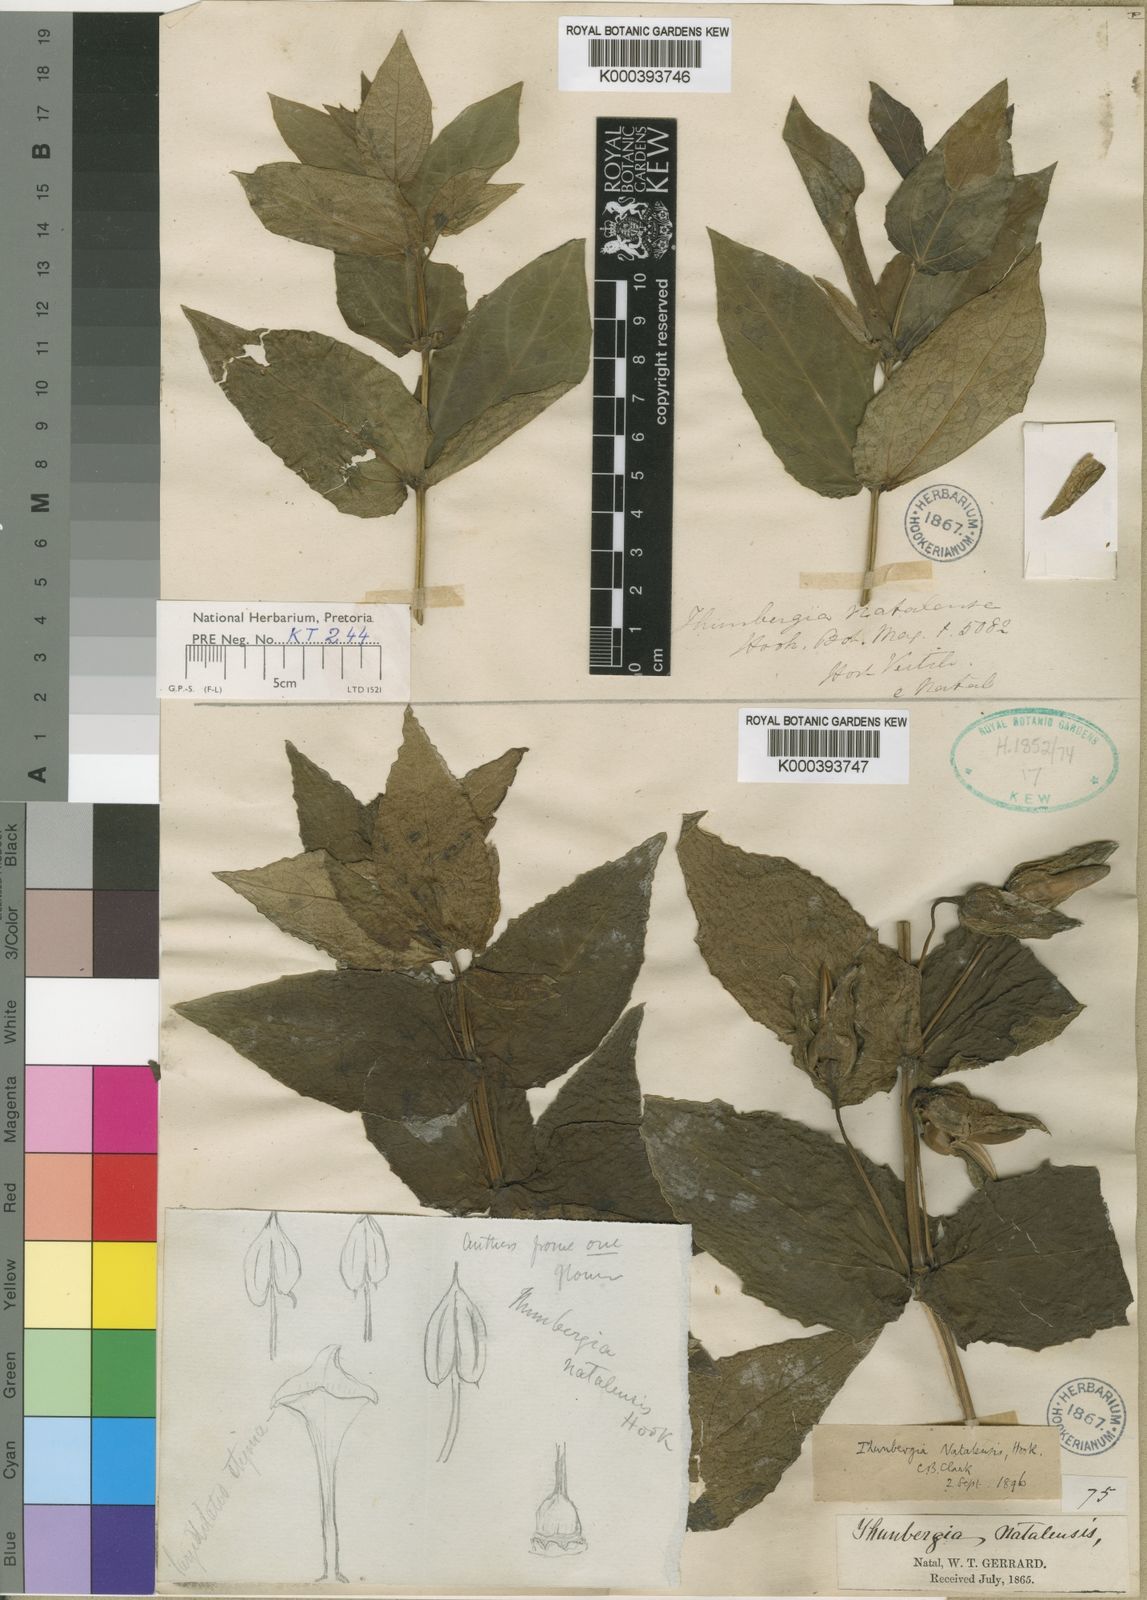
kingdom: Plantae
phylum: Tracheophyta
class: Magnoliopsida
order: Lamiales
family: Acanthaceae
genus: Thunbergia
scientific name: Thunbergia natalensis
